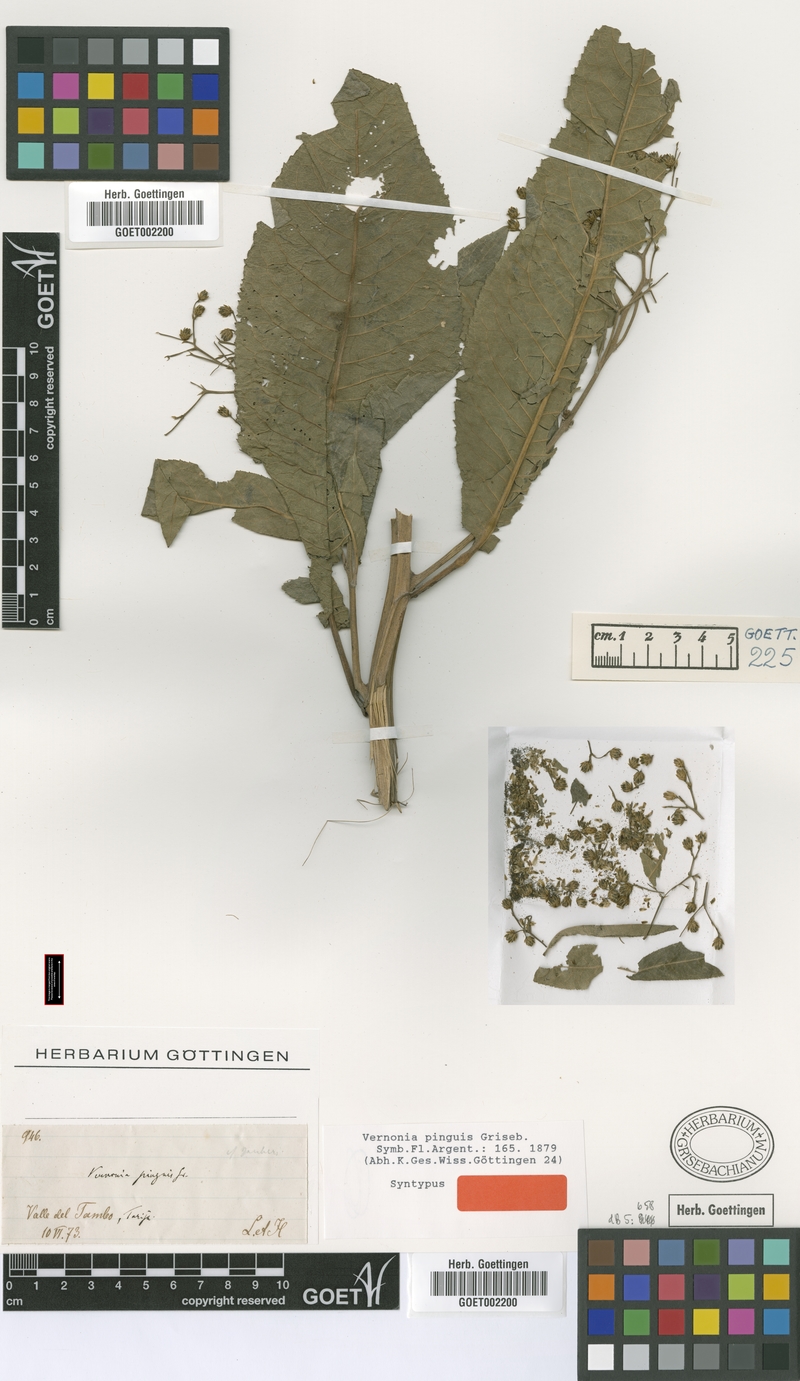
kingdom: Plantae
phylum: Tracheophyta
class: Magnoliopsida
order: Asterales
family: Asteraceae
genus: Vernonanthura
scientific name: Vernonanthura pinguis
